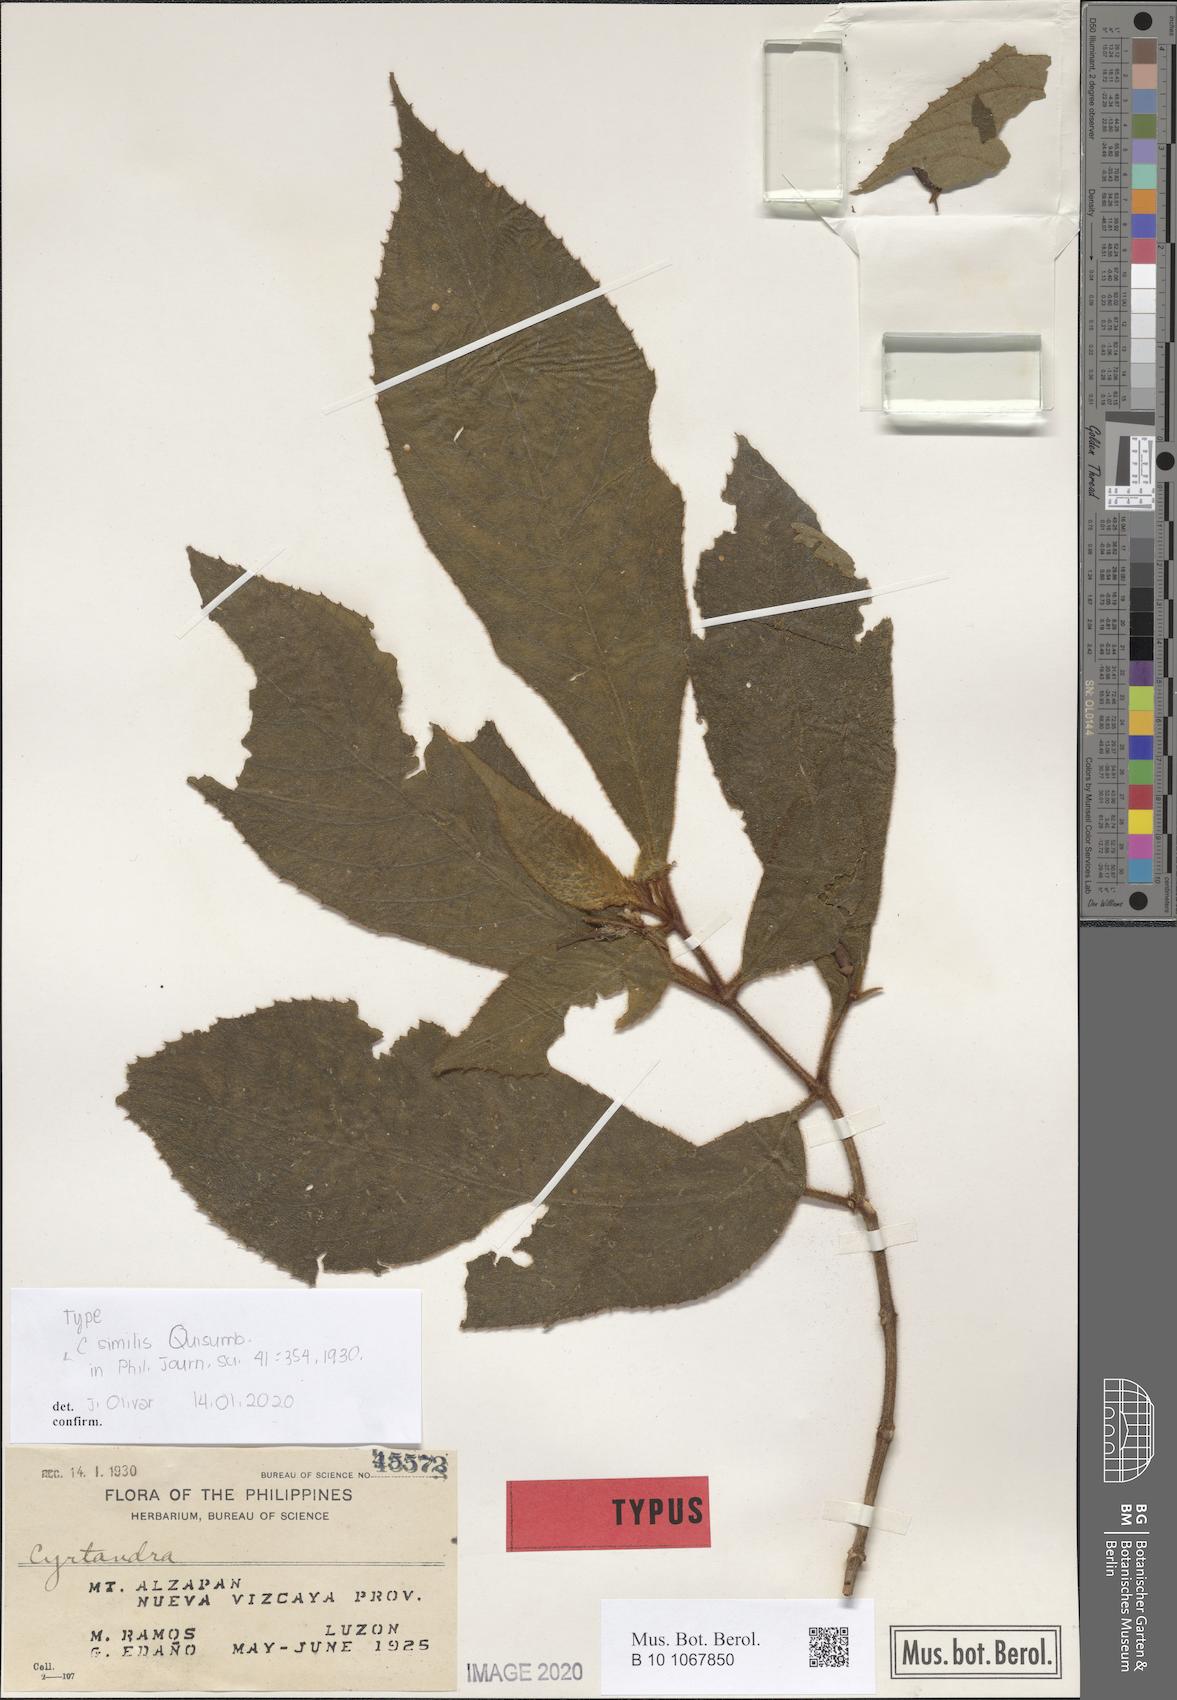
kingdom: Plantae
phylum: Tracheophyta
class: Magnoliopsida
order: Lamiales
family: Gesneriaceae
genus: Cyrtandra
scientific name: Cyrtandra similis
